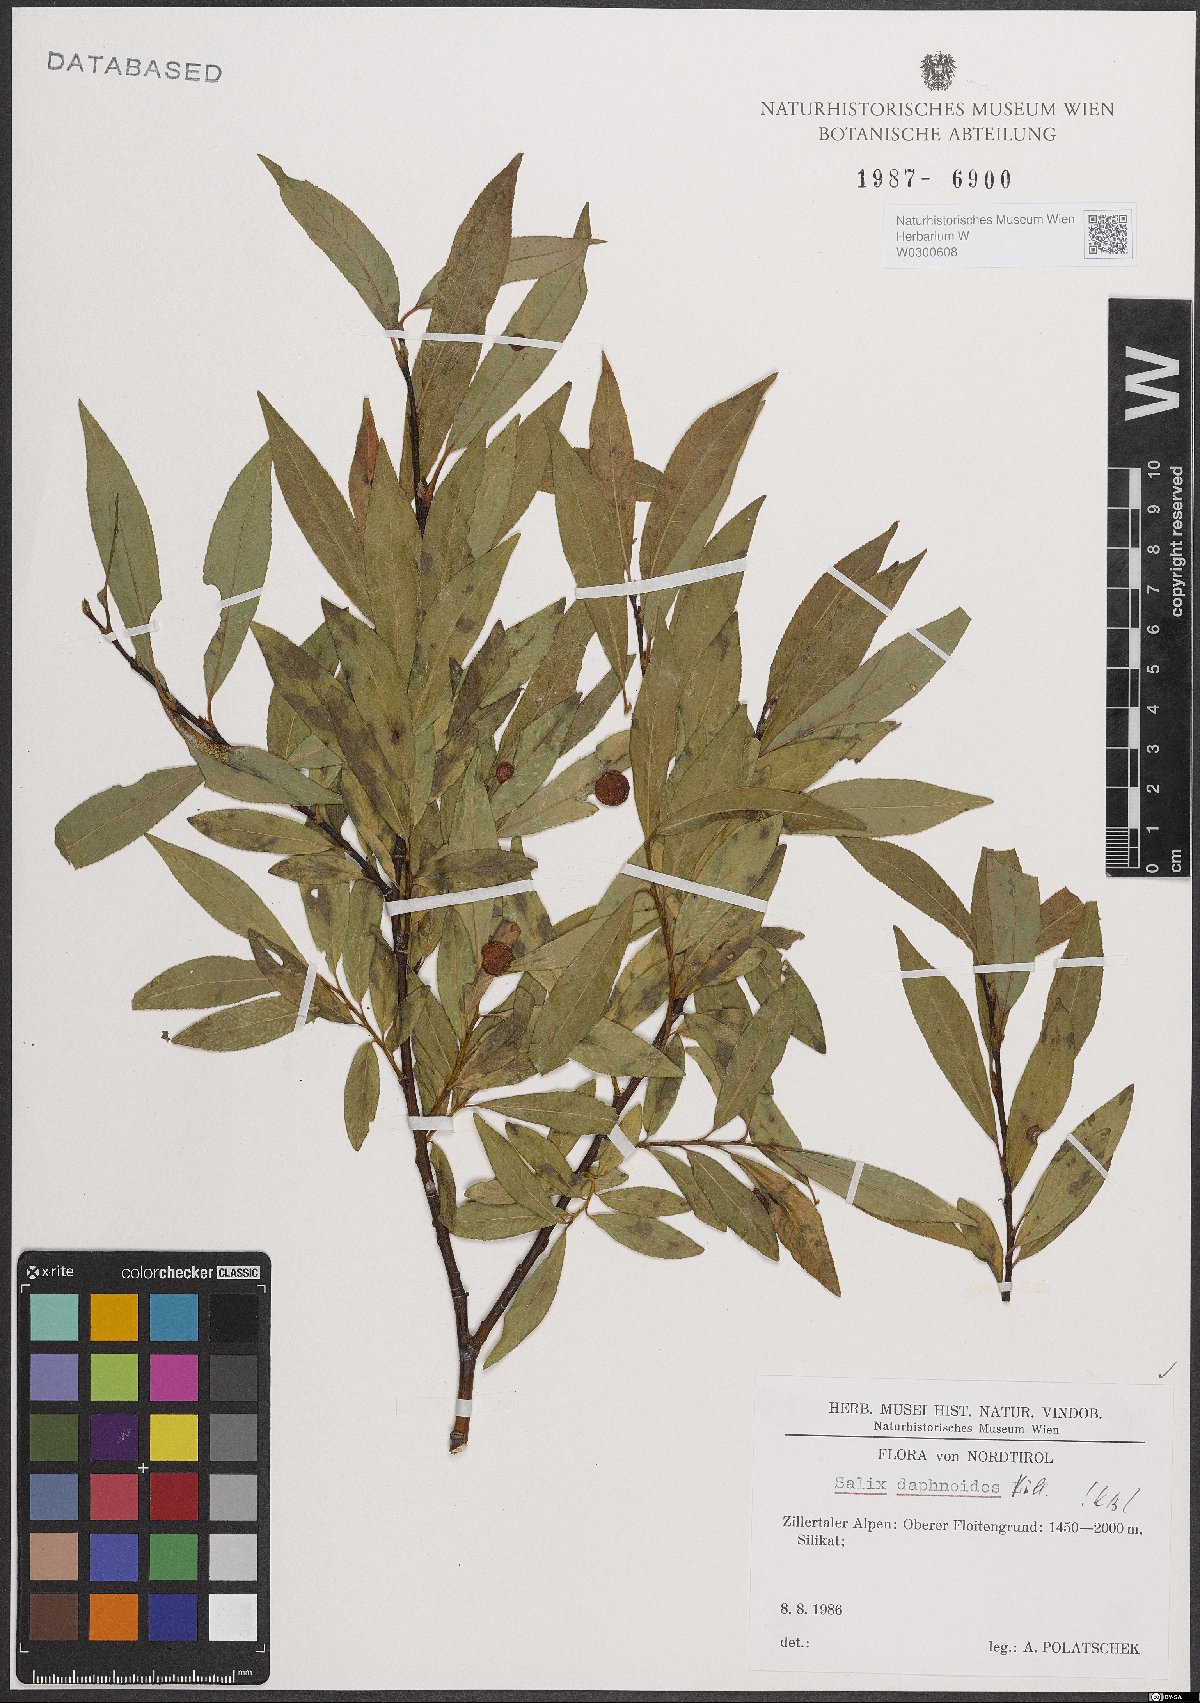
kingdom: Plantae
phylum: Tracheophyta
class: Magnoliopsida
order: Malpighiales
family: Salicaceae
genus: Salix
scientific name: Salix daphnoides
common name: European violet-willow
